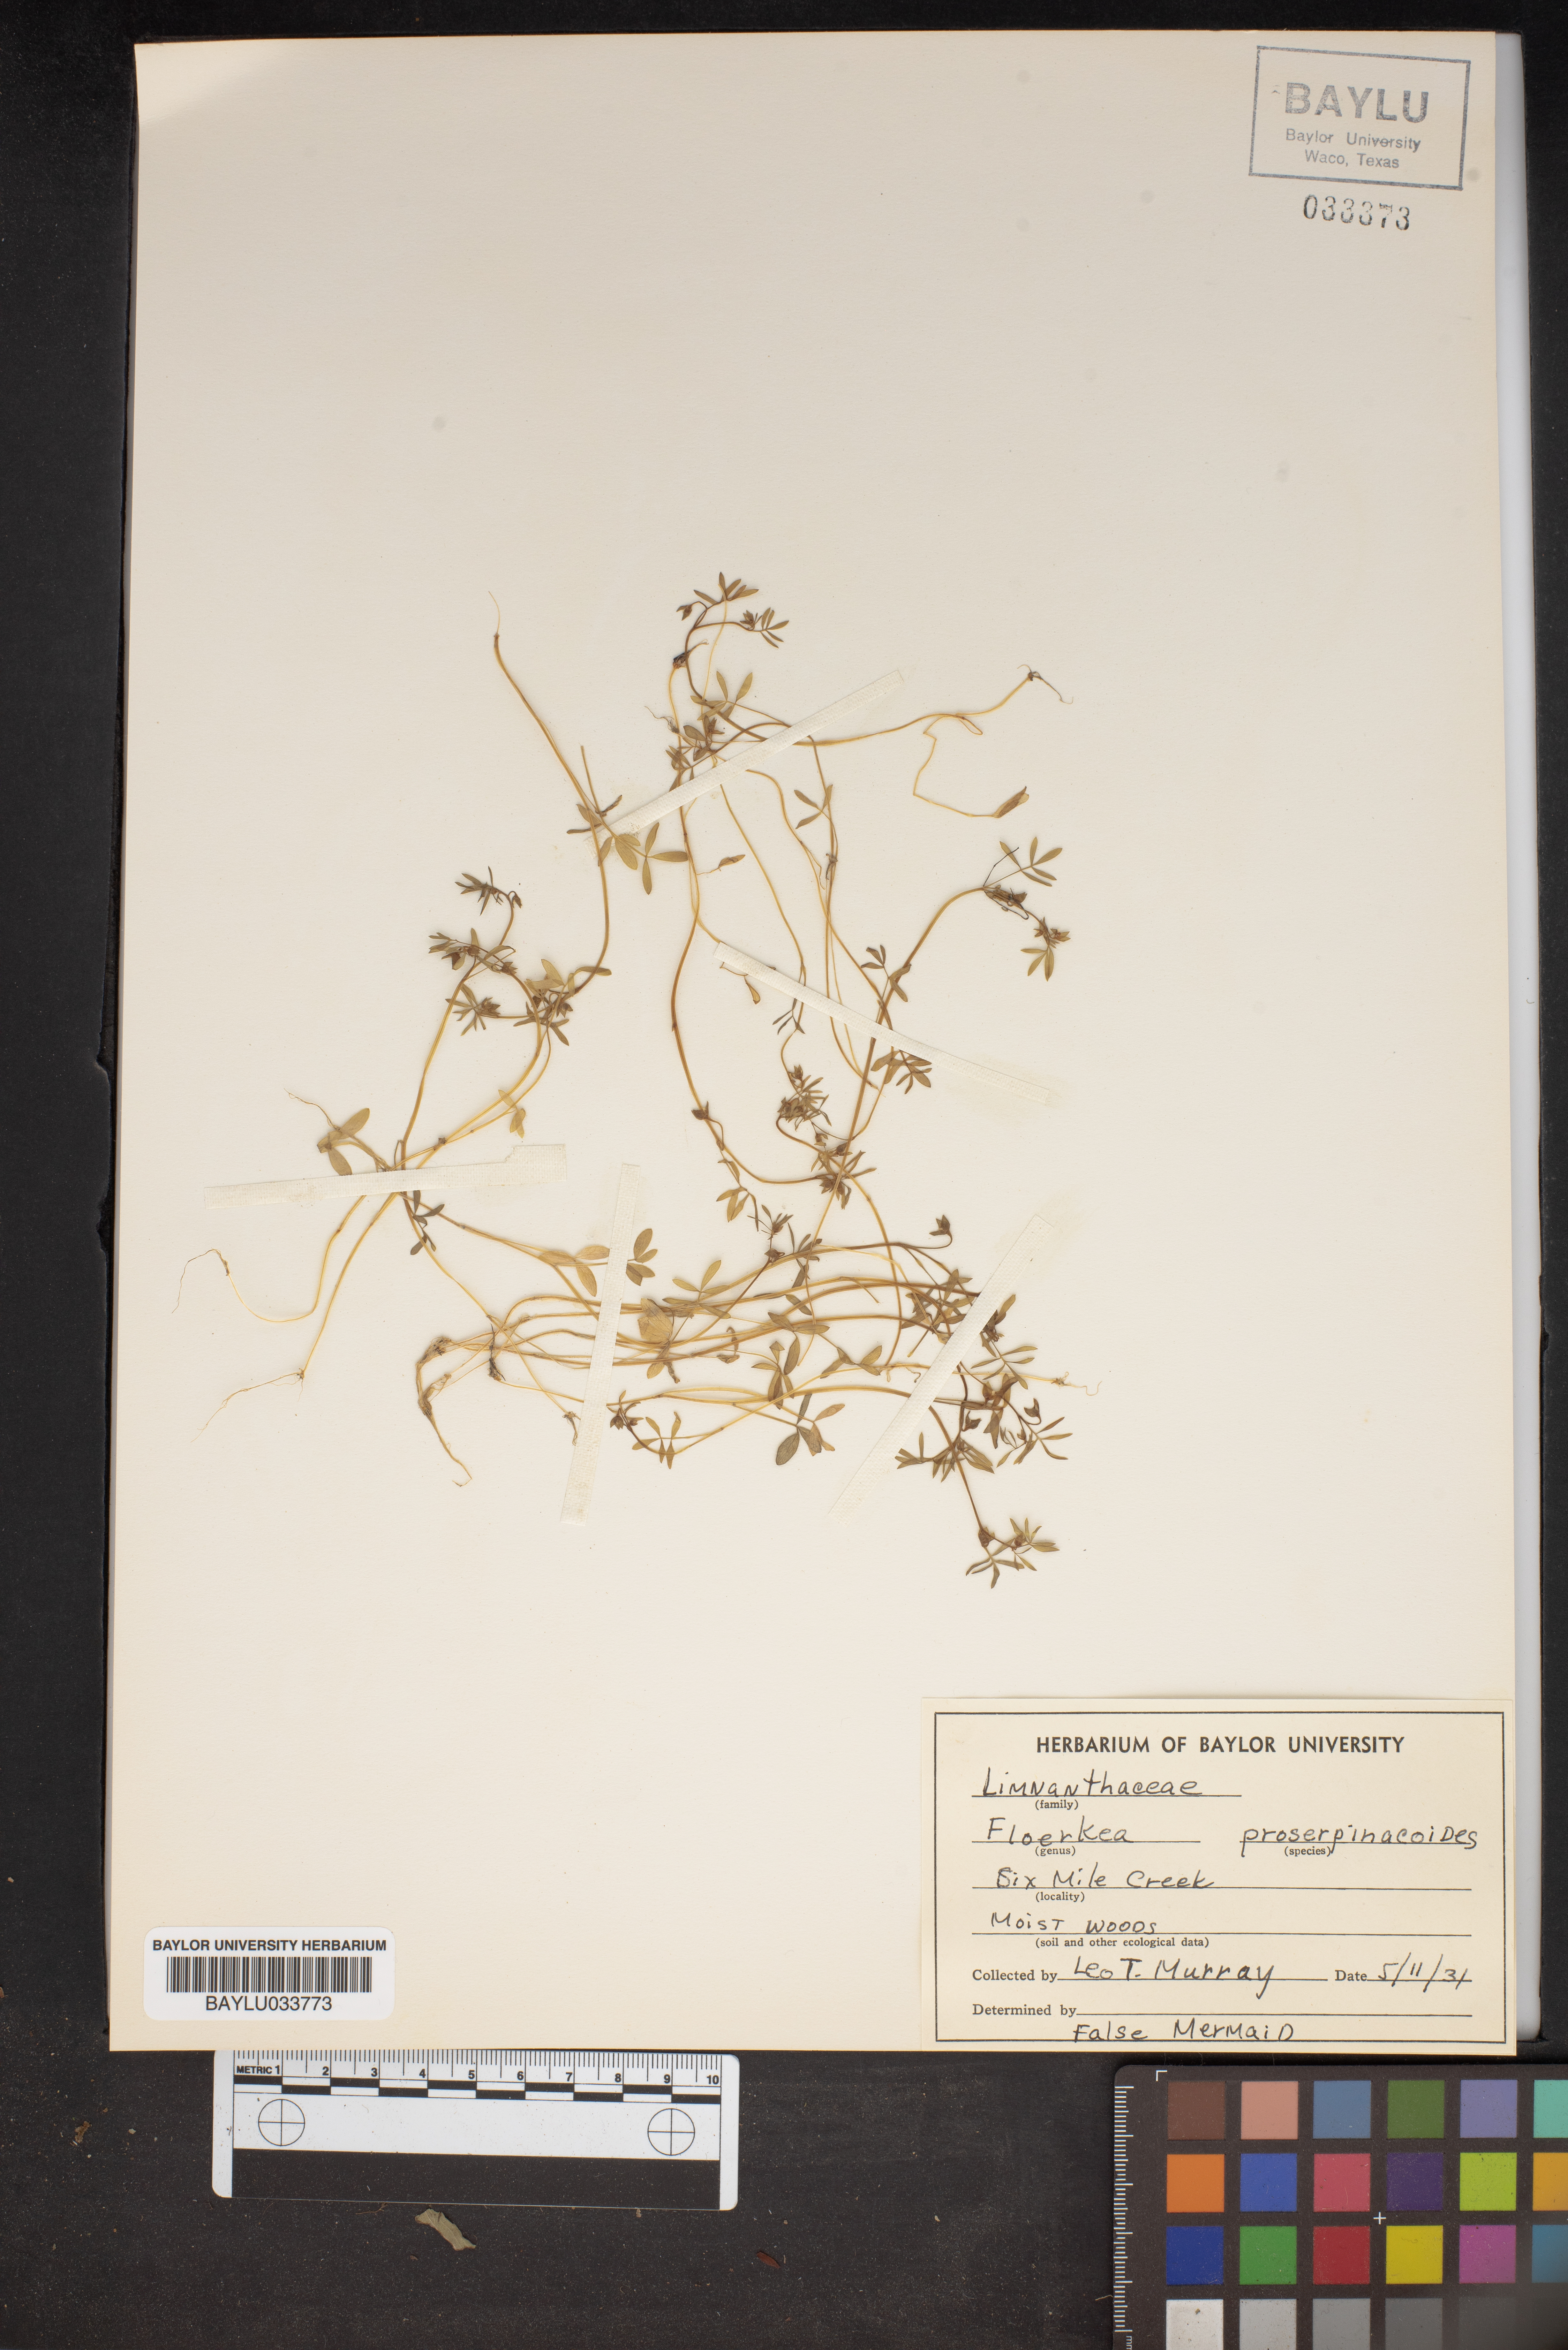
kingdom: Plantae
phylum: Tracheophyta
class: Magnoliopsida
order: Brassicales
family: Limnanthaceae
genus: Floerkea
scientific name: Floerkea proserpinacoides
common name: False mermaid
